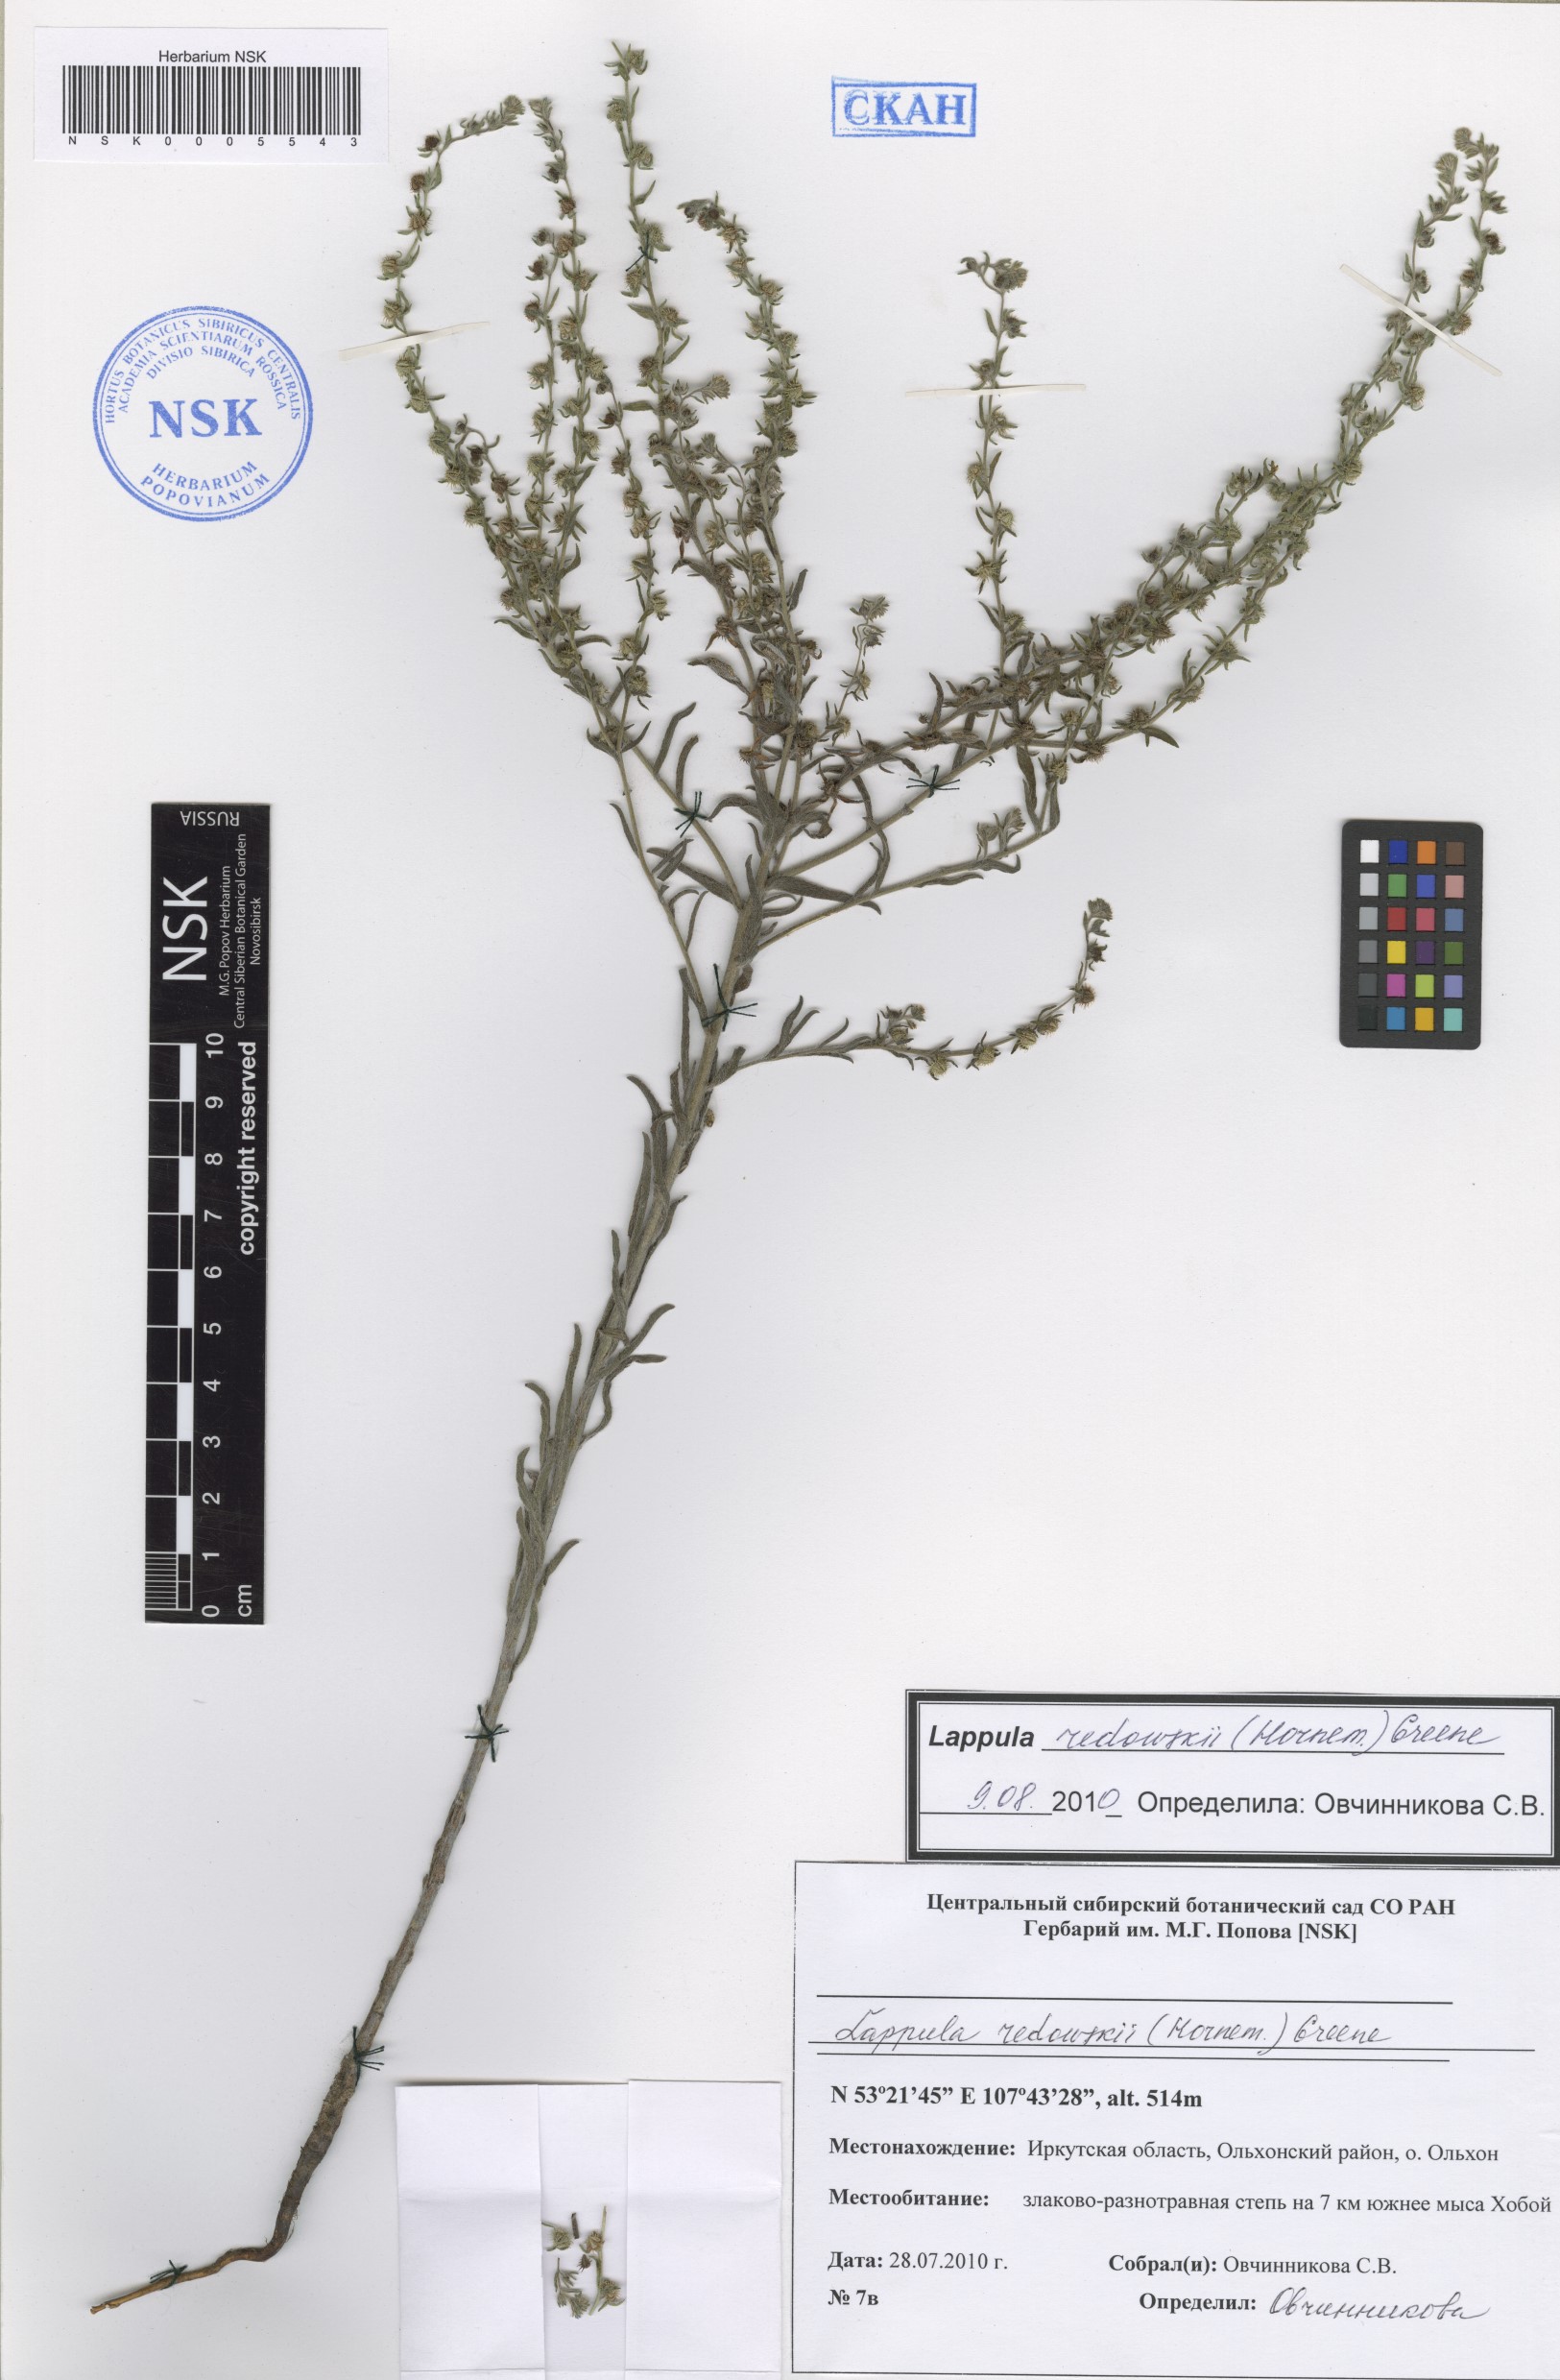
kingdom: Plantae
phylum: Tracheophyta
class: Magnoliopsida
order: Boraginales
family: Boraginaceae
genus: Lappula
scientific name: Lappula redowskii
